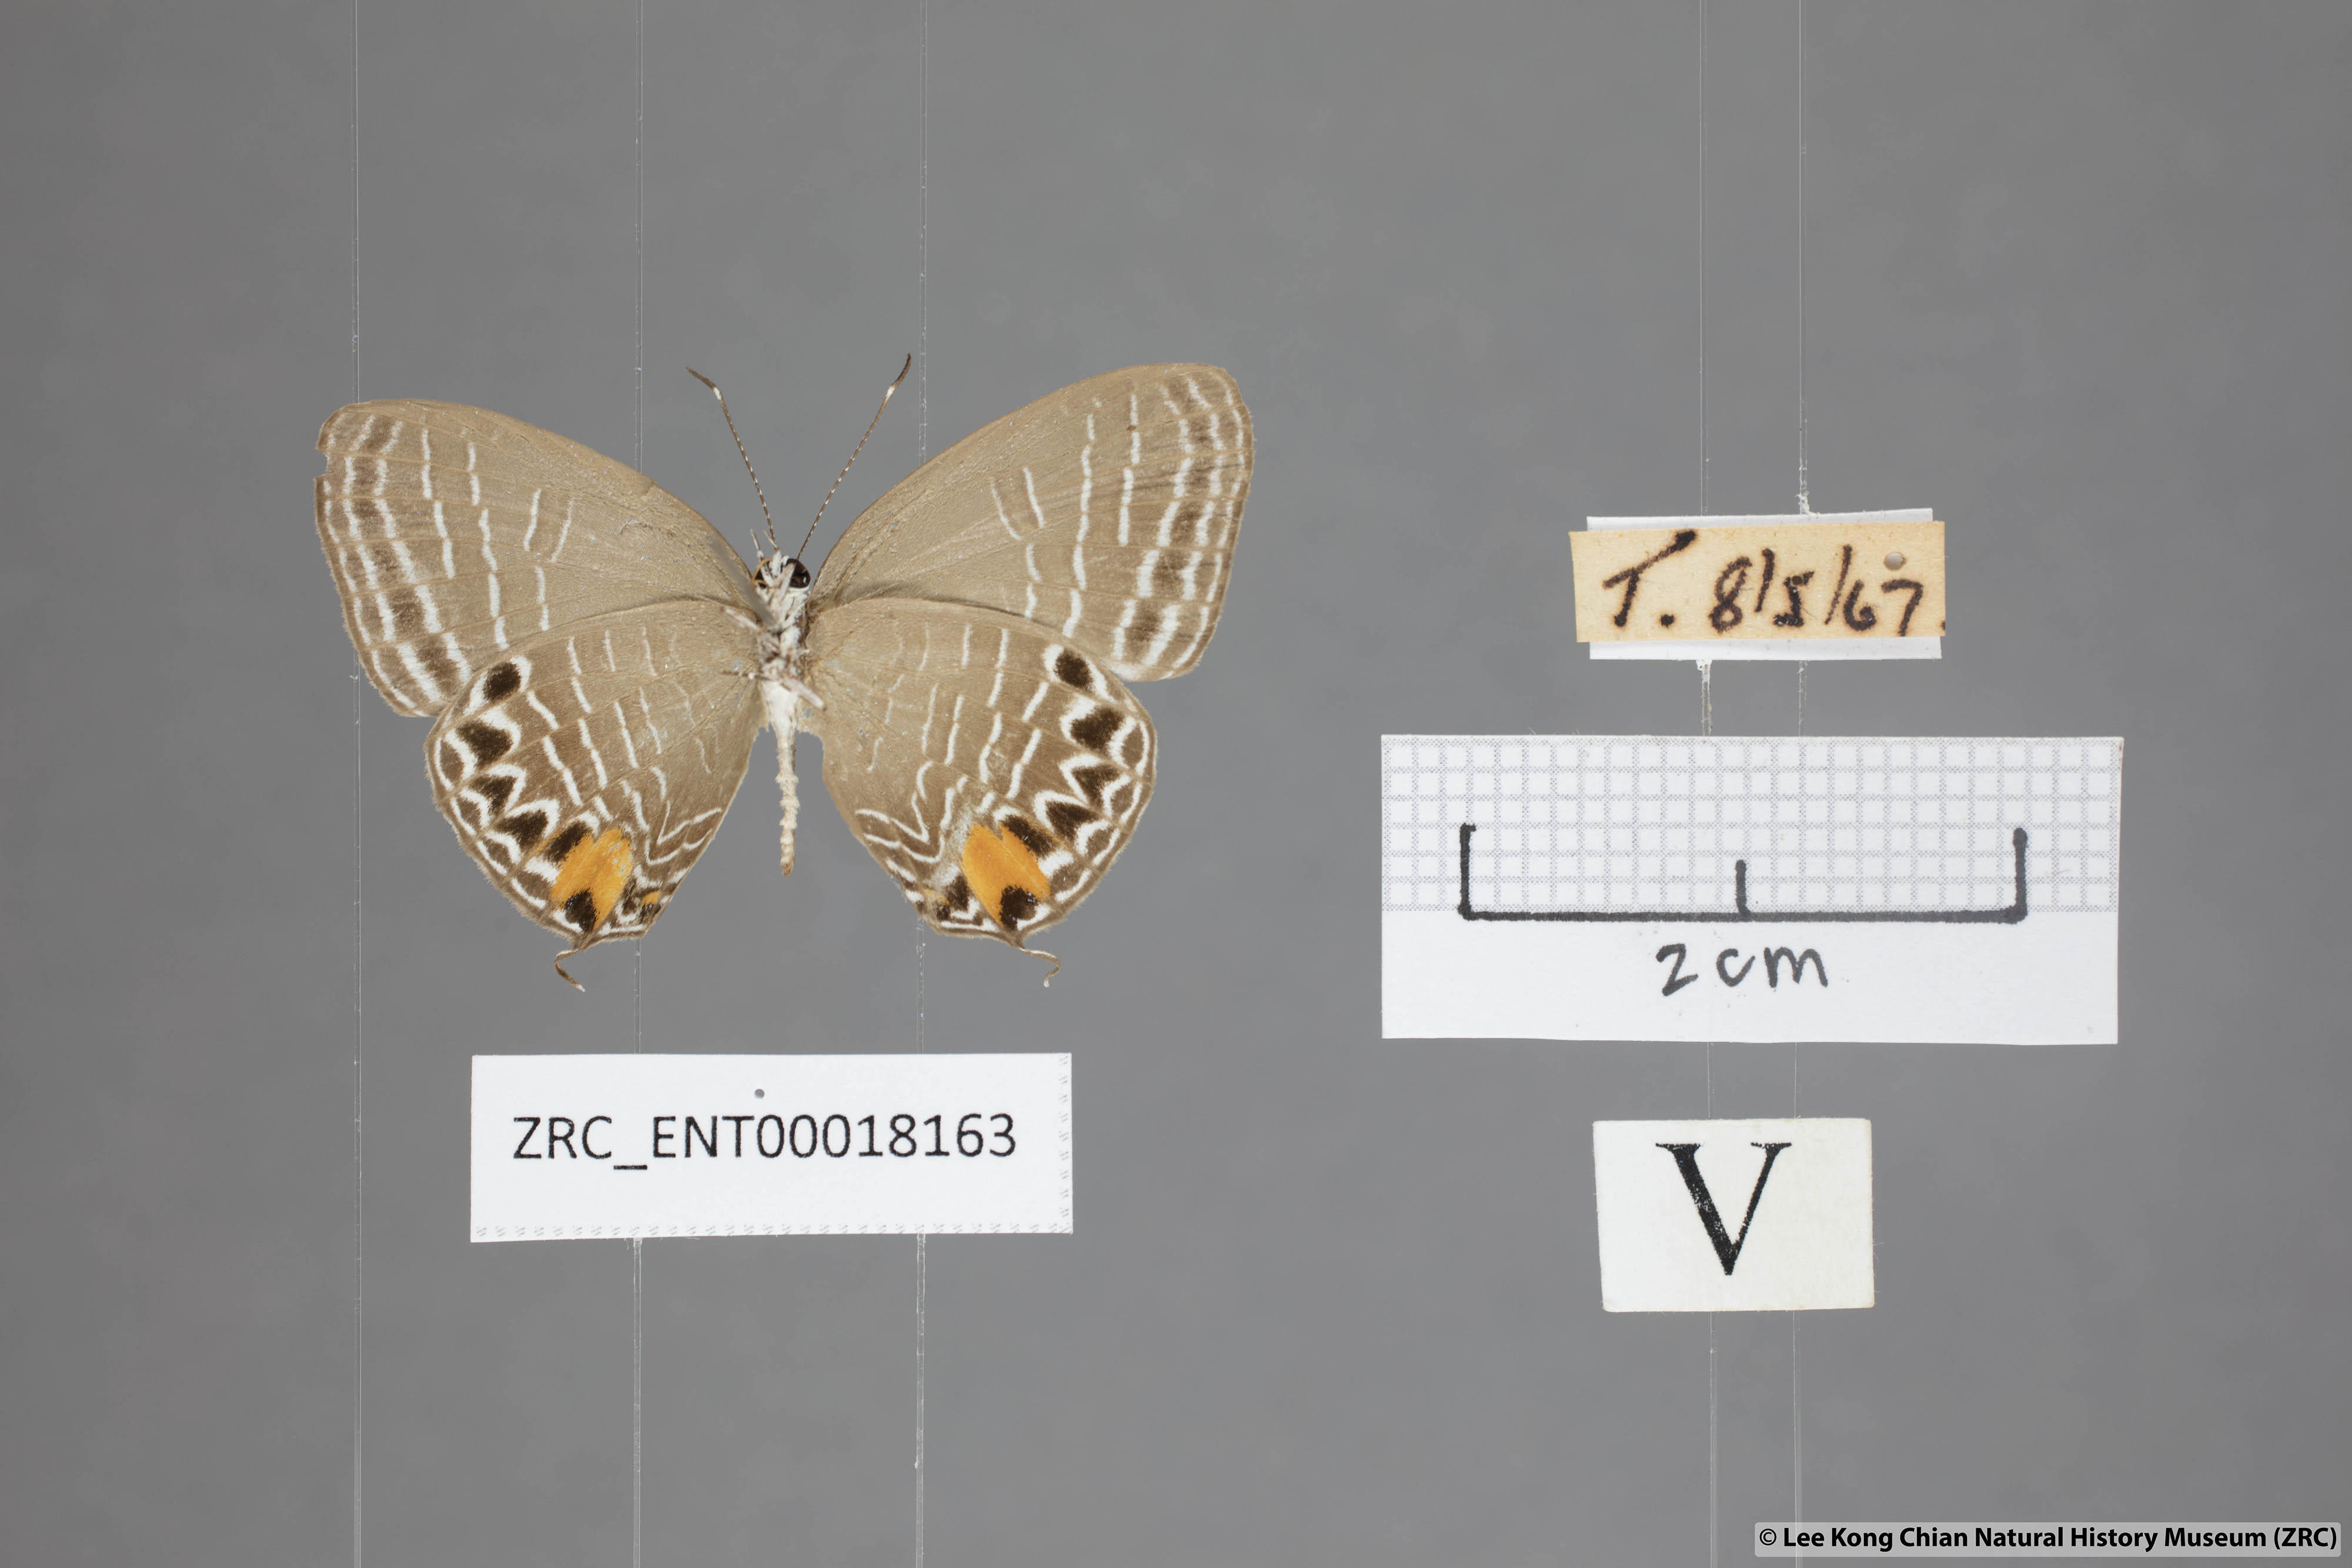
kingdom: Animalia
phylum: Arthropoda
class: Insecta
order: Lepidoptera
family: Lycaenidae
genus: Jamides
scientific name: Jamides
